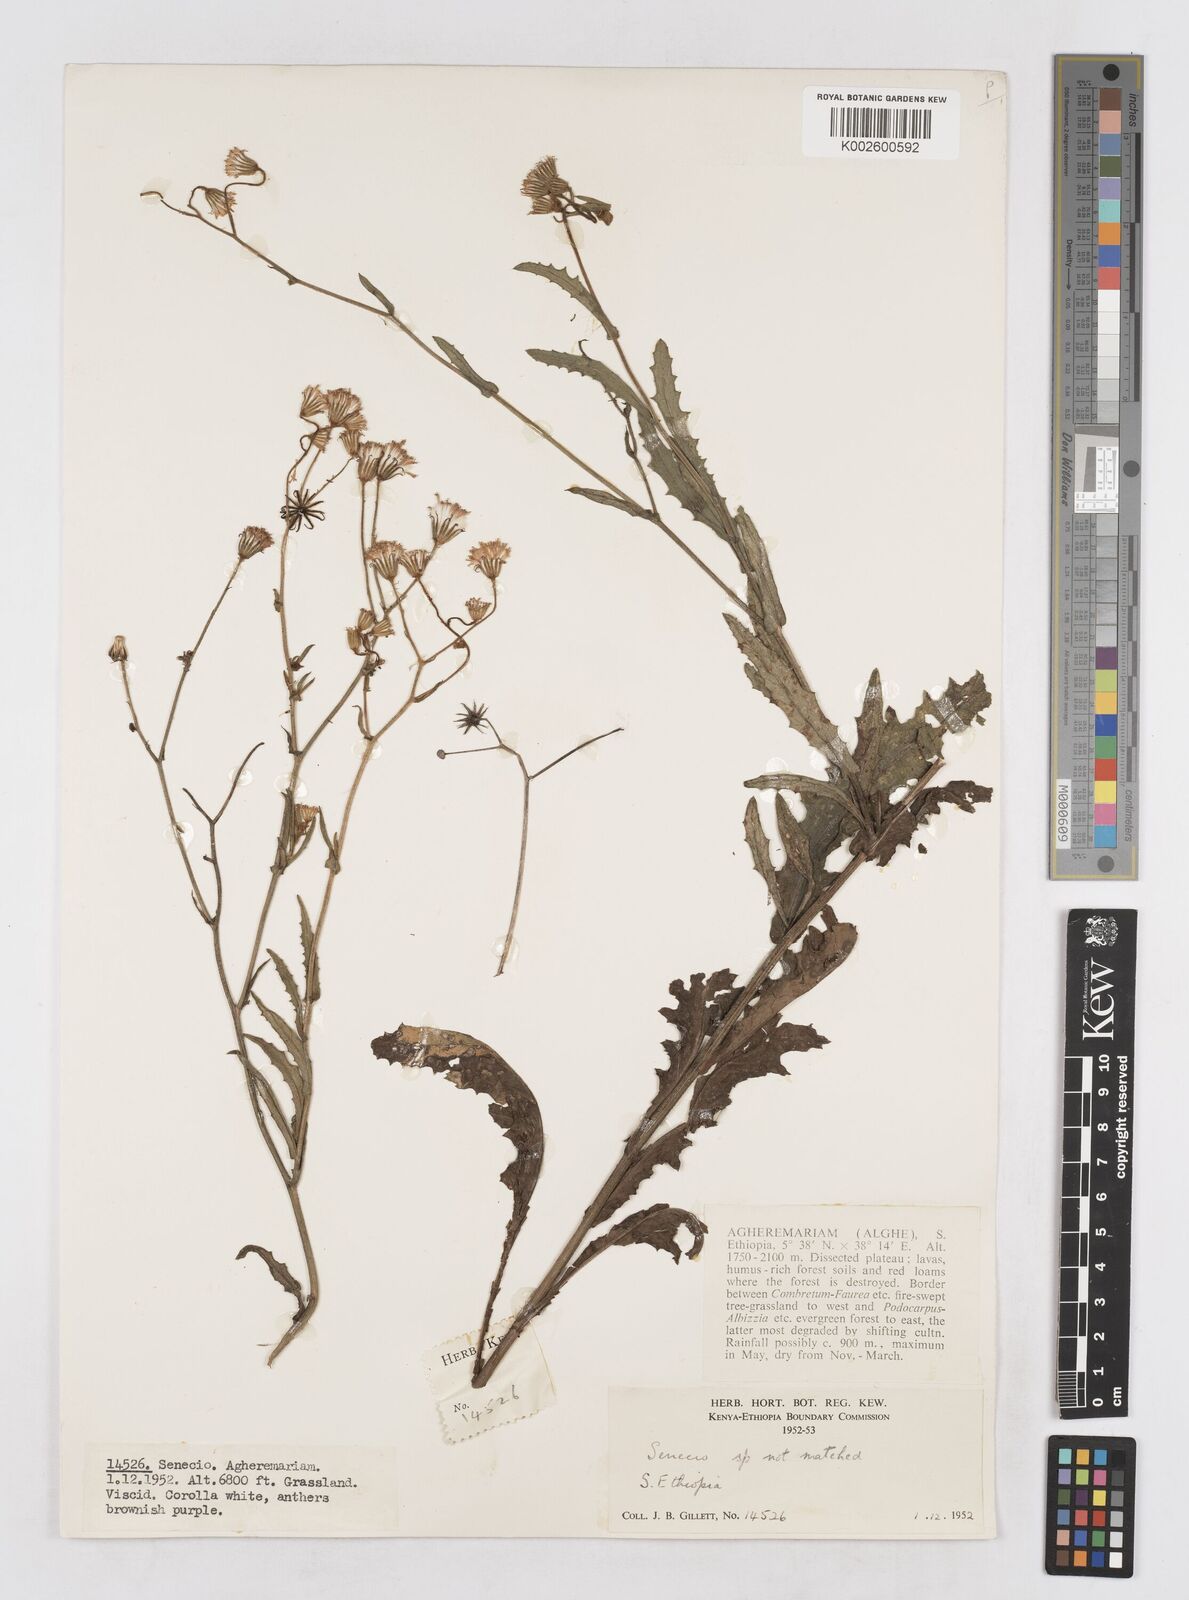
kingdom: Plantae
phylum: Tracheophyta
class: Magnoliopsida
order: Asterales
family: Asteraceae
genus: Senecio
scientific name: Senecio hochstetteri
